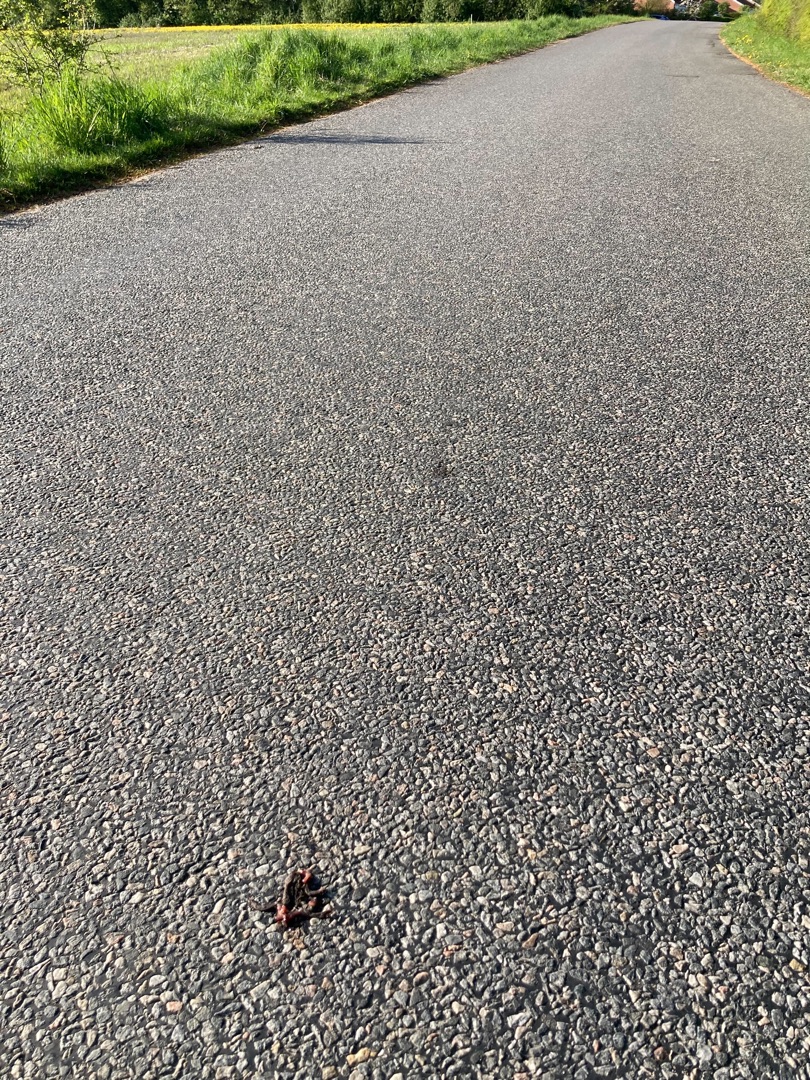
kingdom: Animalia
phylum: Chordata
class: Amphibia
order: Anura
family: Bufonidae
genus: Bufo
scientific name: Bufo bufo
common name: Skrubtudse
